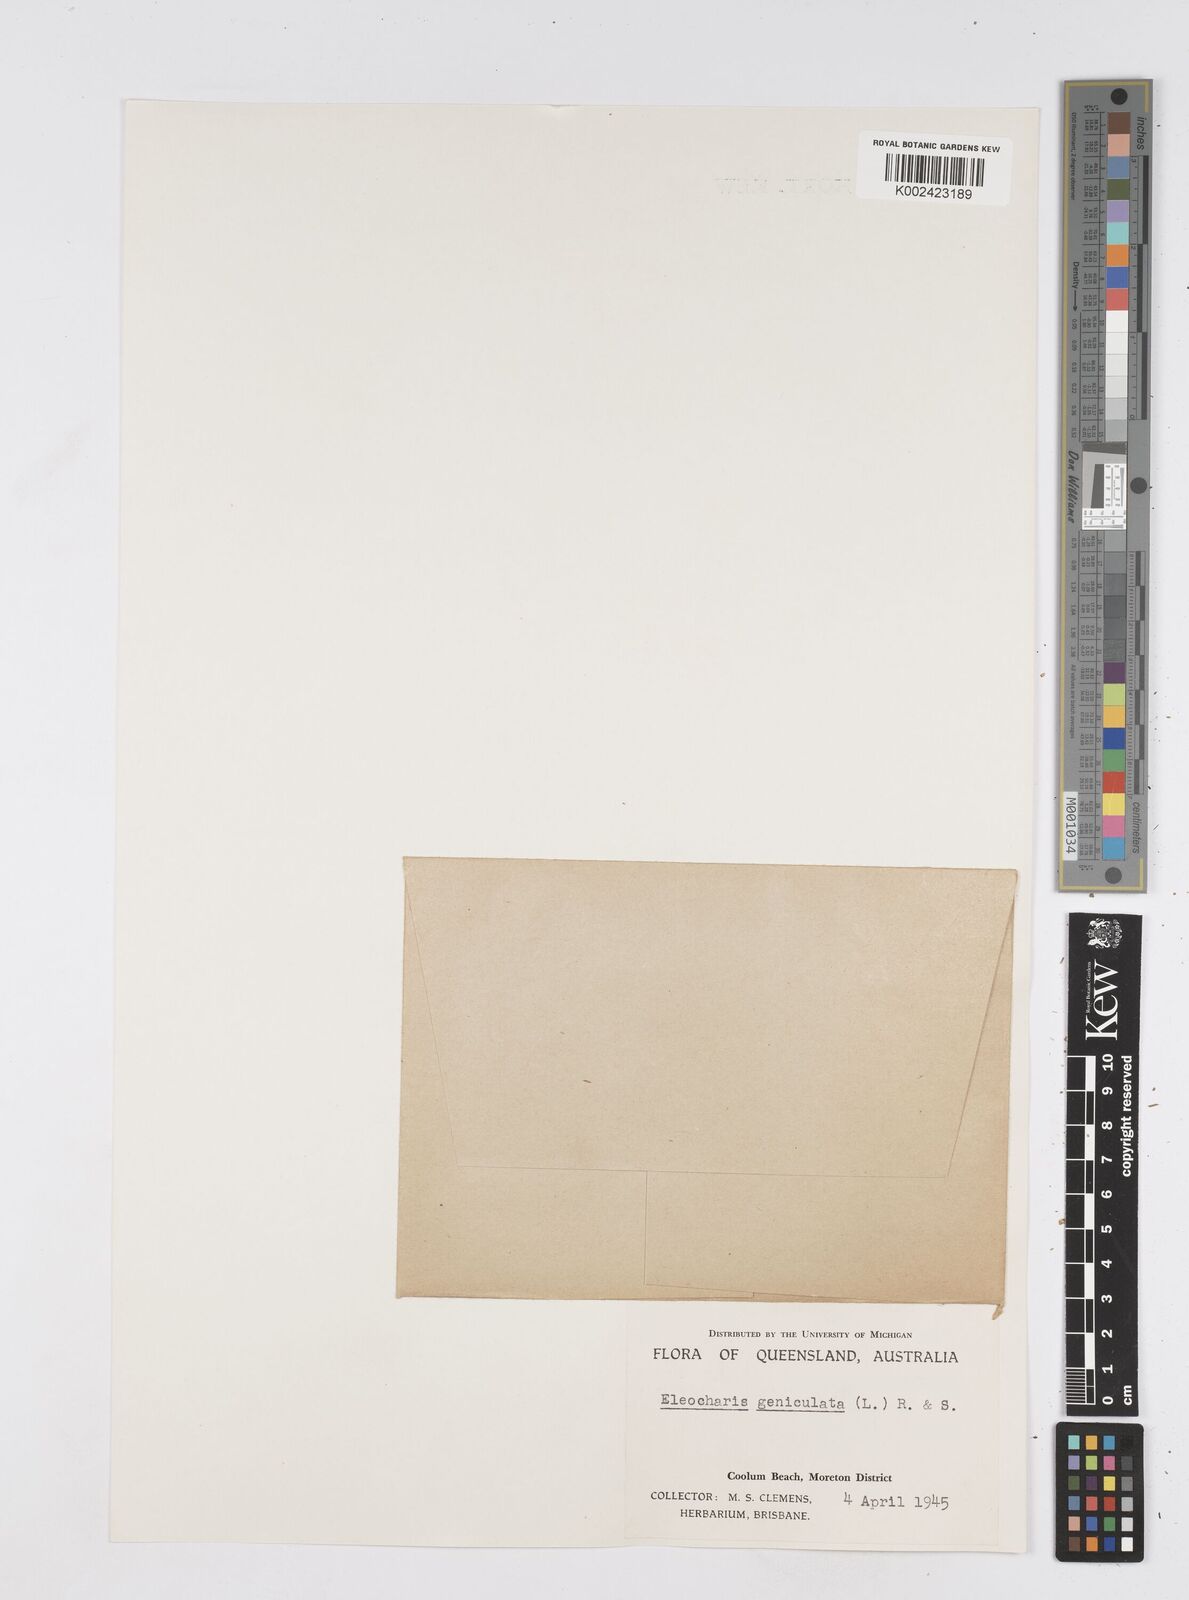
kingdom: Plantae
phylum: Tracheophyta
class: Liliopsida
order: Poales
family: Cyperaceae
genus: Eleocharis
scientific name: Eleocharis geniculata
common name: Canada spikesedge
